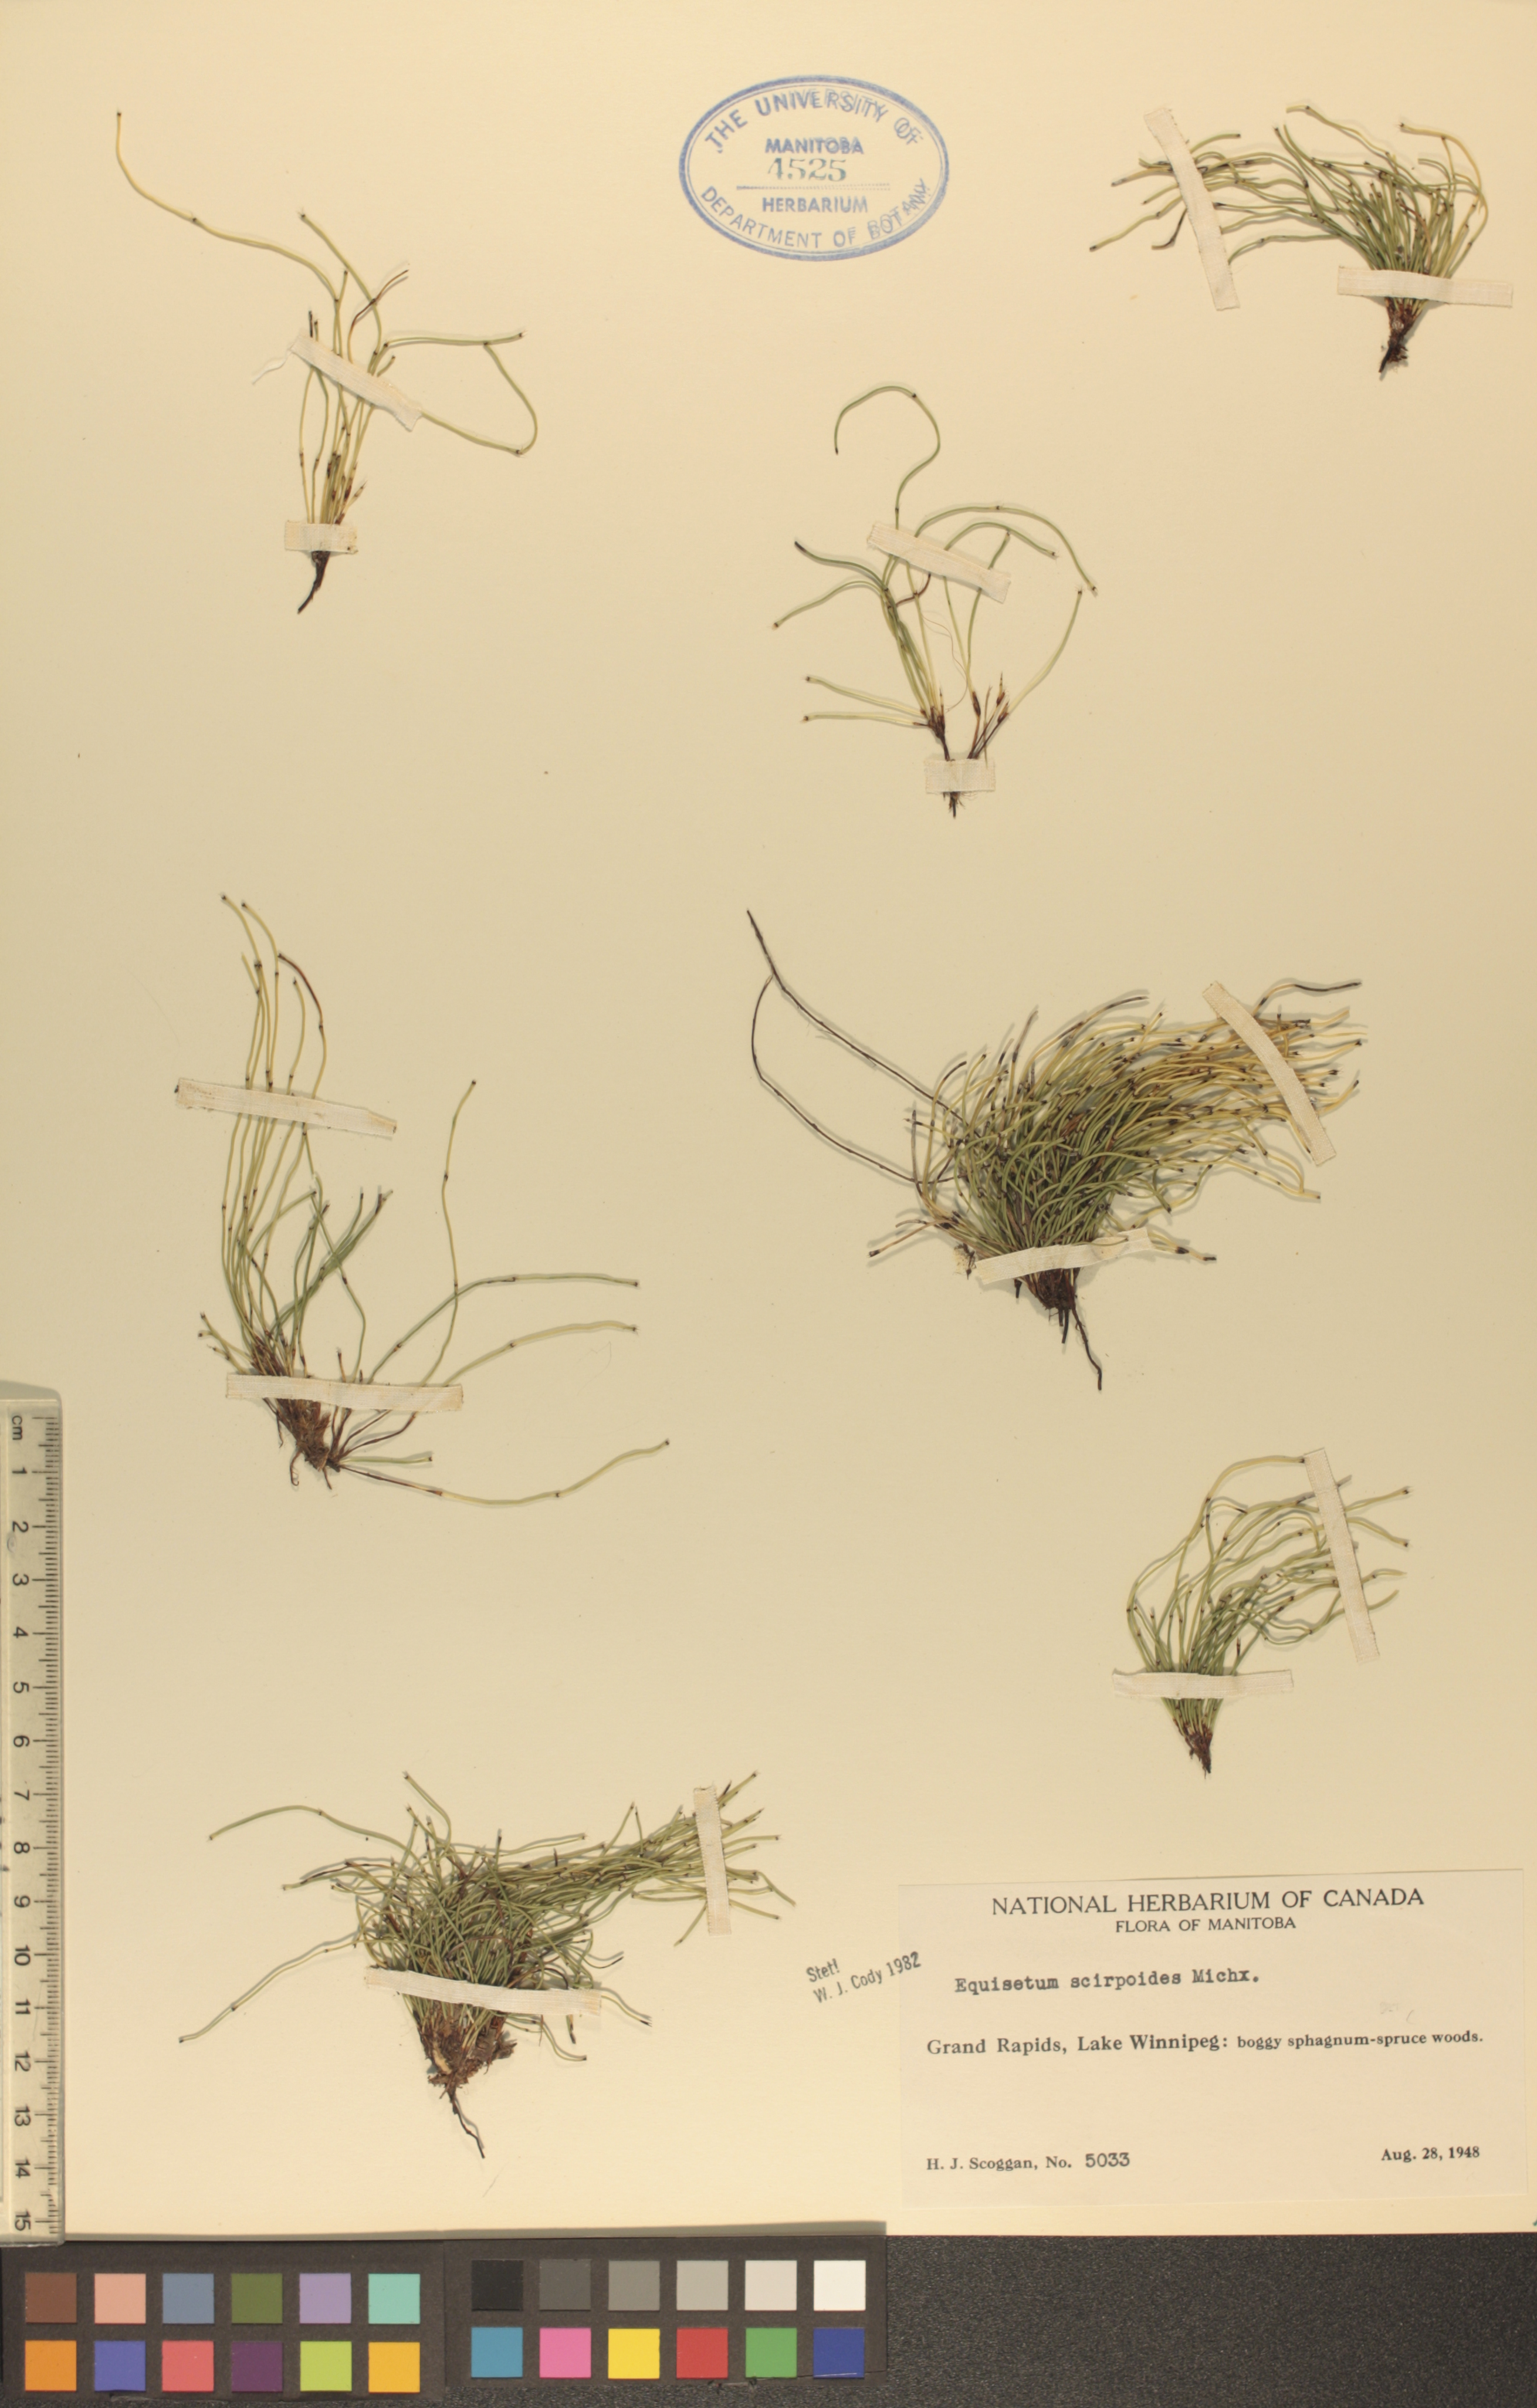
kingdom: Plantae
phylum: Tracheophyta
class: Polypodiopsida
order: Equisetales
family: Equisetaceae
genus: Equisetum
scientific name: Equisetum scirpoides
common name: Delicate horsetail
